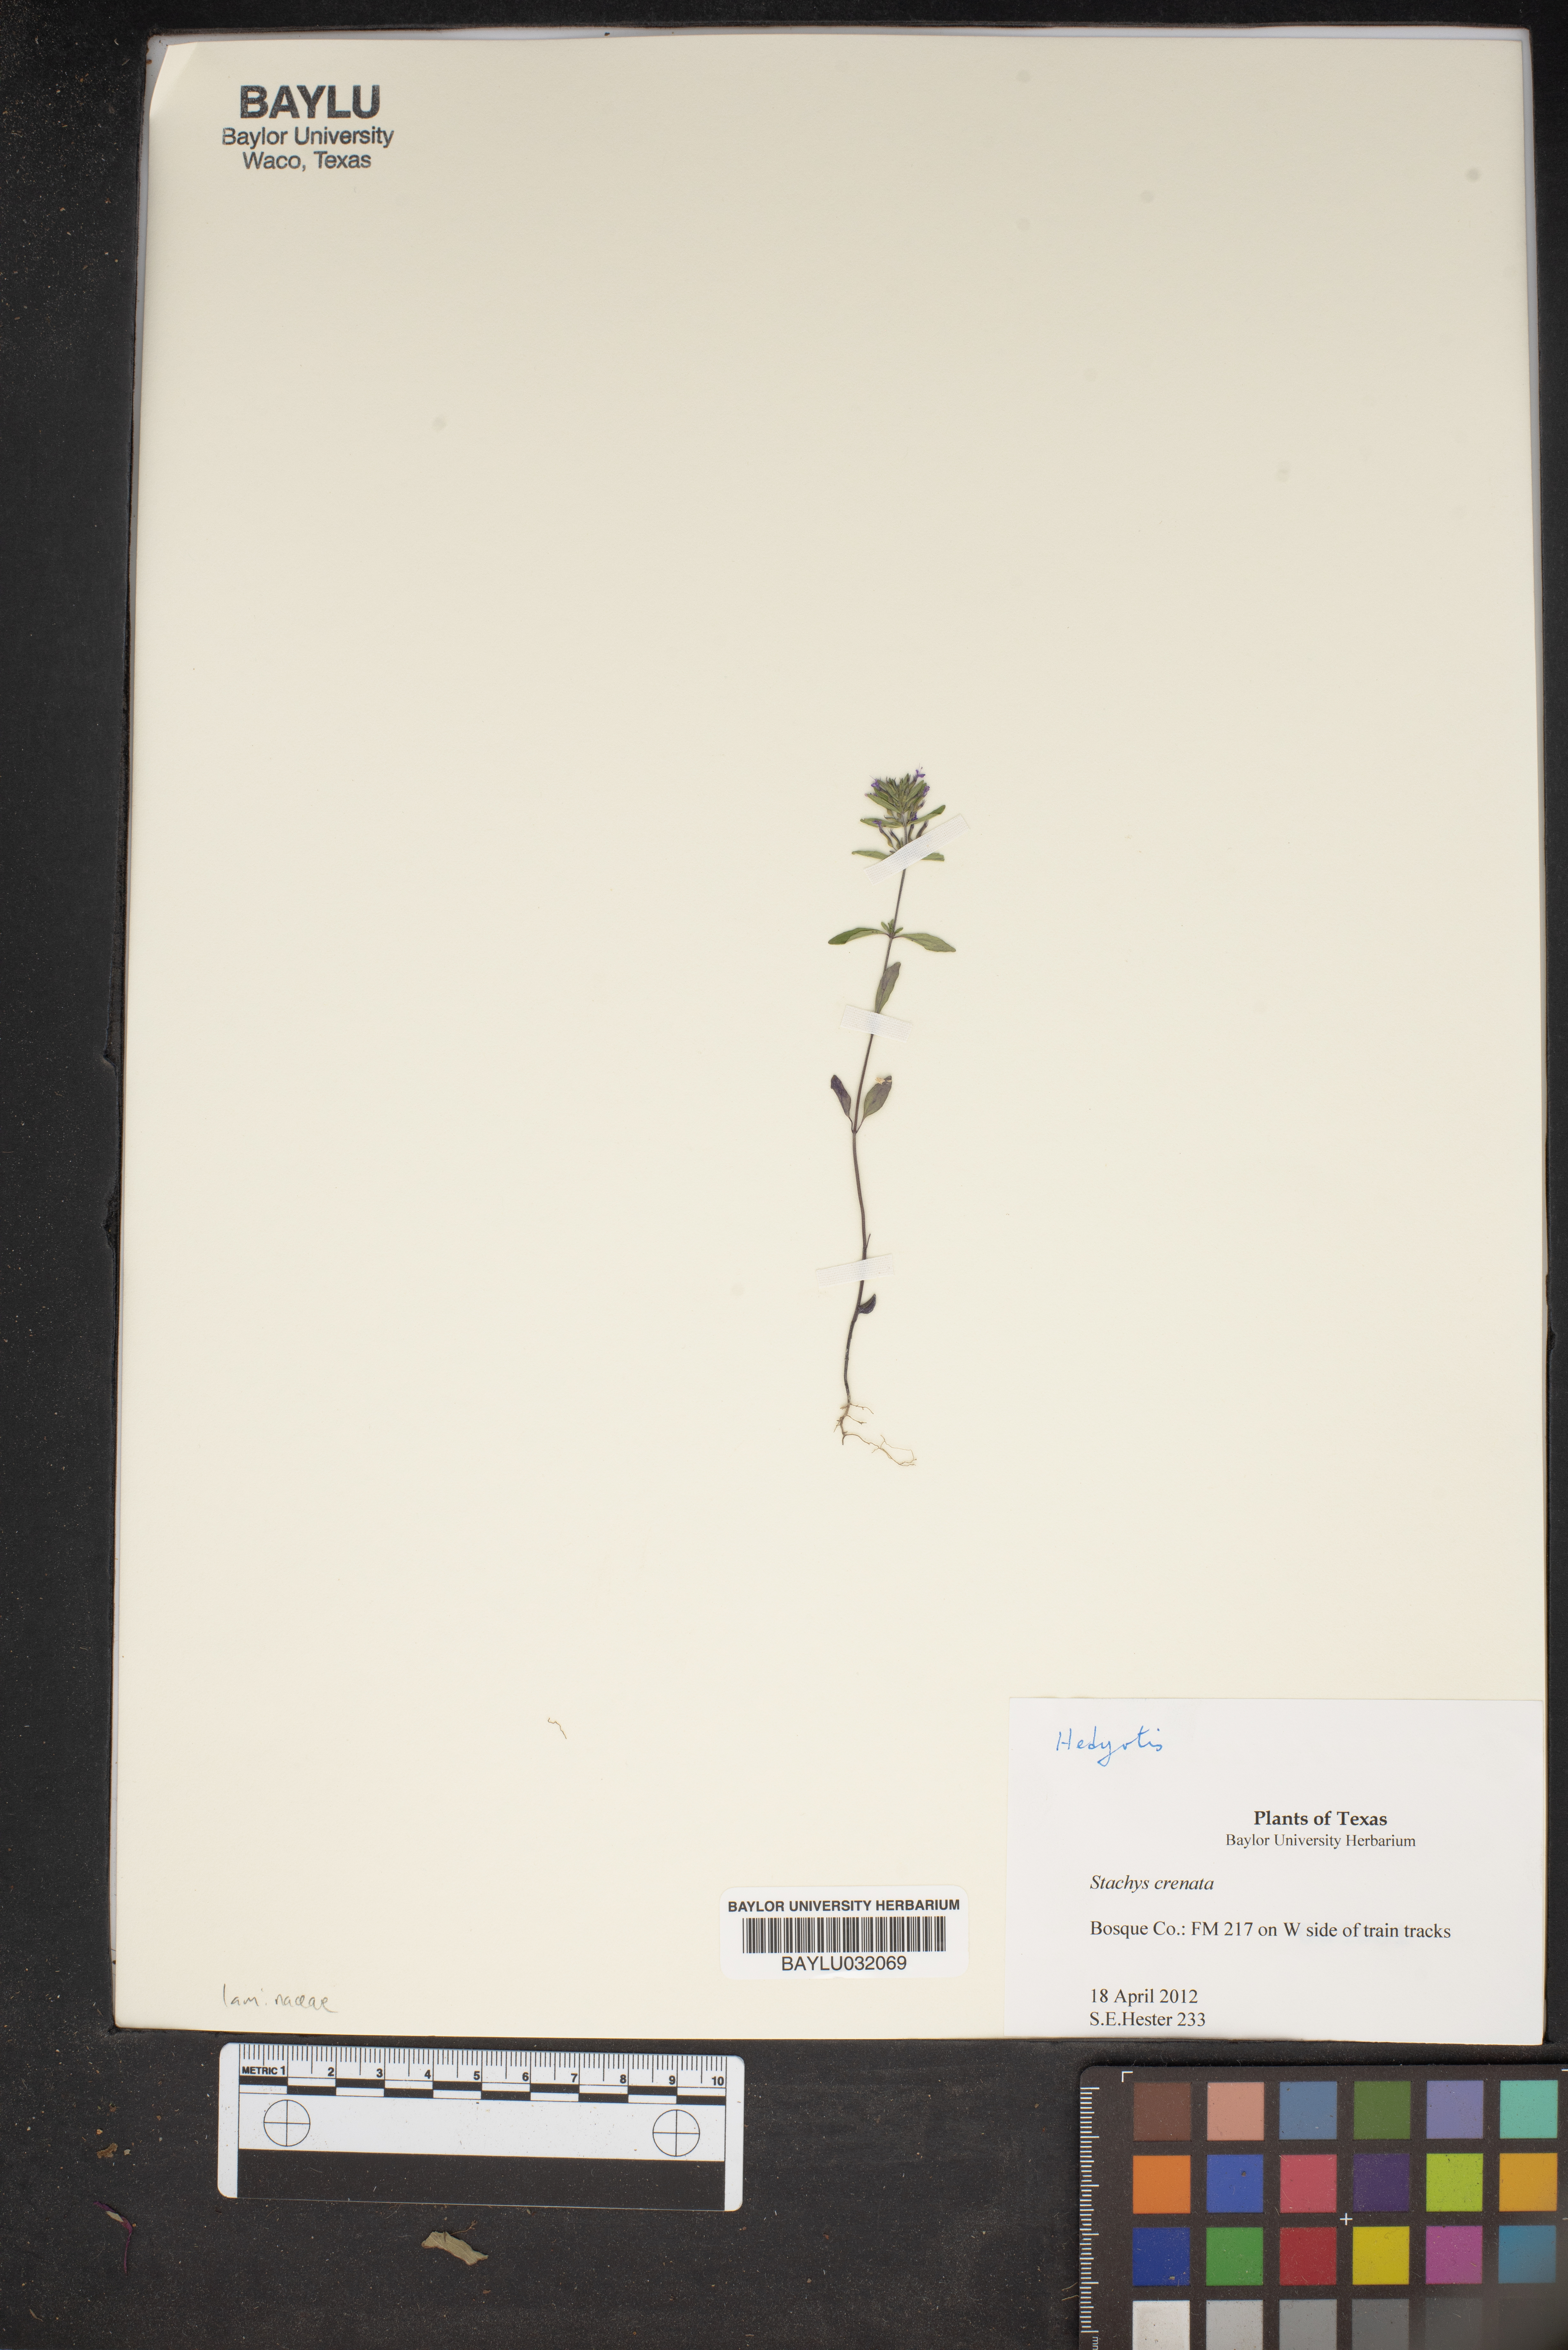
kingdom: Plantae
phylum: Tracheophyta
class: Magnoliopsida
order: Lamiales
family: Lamiaceae
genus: Stachys
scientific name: Stachys agraria
